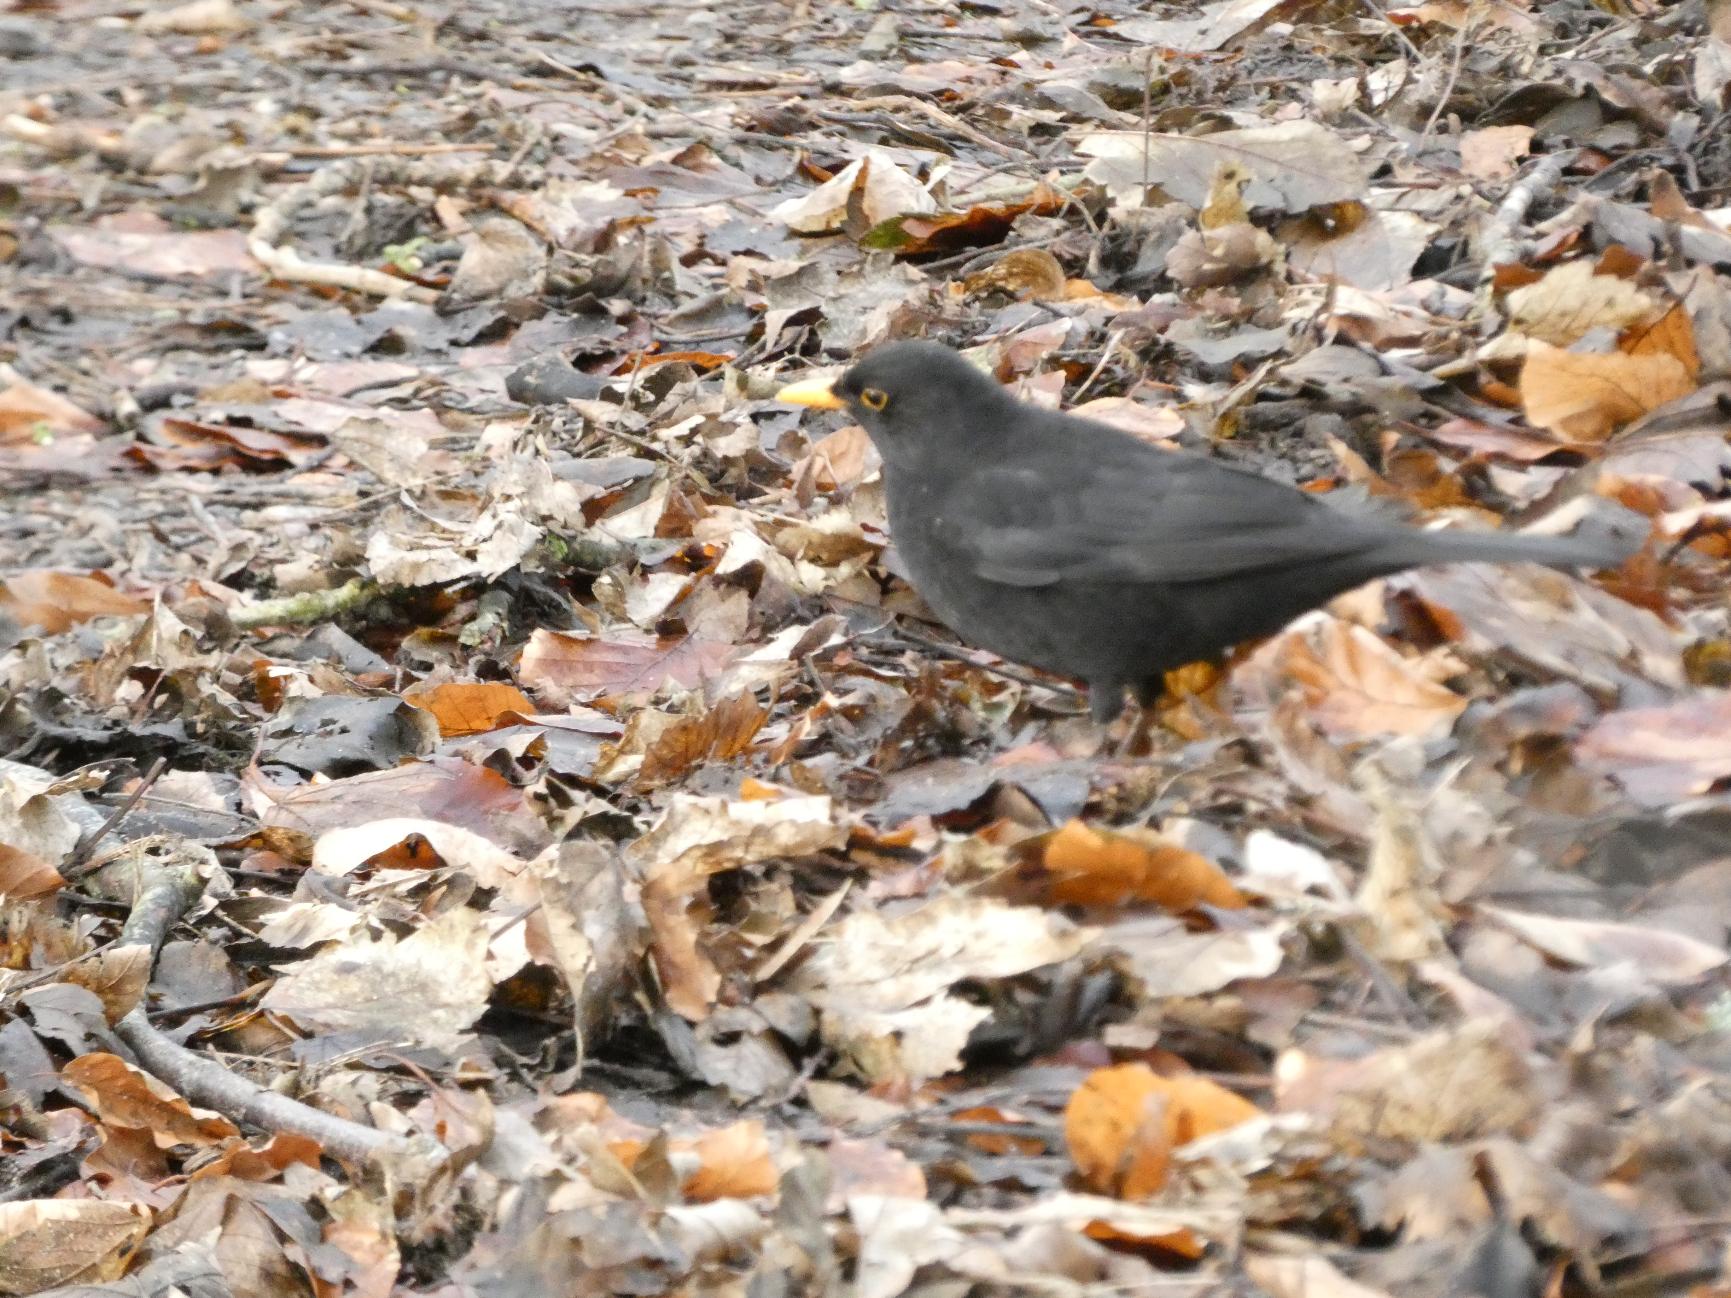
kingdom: Animalia
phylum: Chordata
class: Aves
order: Passeriformes
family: Turdidae
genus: Turdus
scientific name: Turdus merula
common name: Solsort
